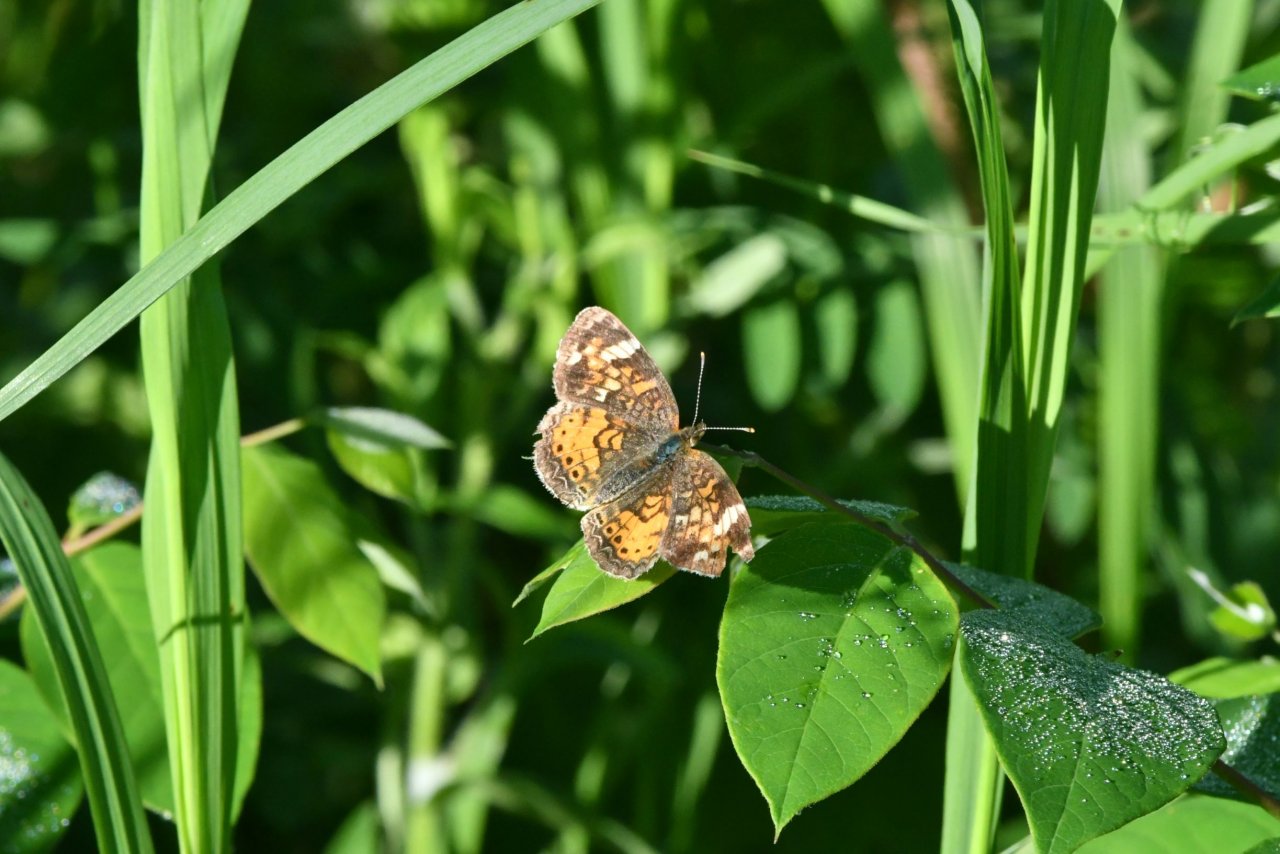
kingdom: Animalia
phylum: Arthropoda
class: Insecta
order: Lepidoptera
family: Nymphalidae
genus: Phyciodes
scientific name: Phyciodes tharos
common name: Northern Crescent
